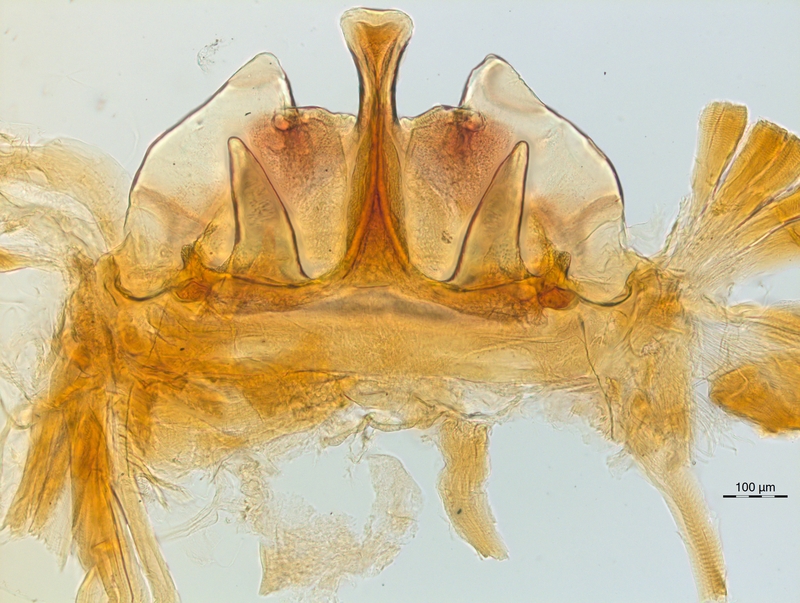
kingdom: Animalia
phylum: Arthropoda
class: Diplopoda
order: Chordeumatida
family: Craspedosomatidae
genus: Craspedosoma
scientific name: Craspedosoma rawlinsii
